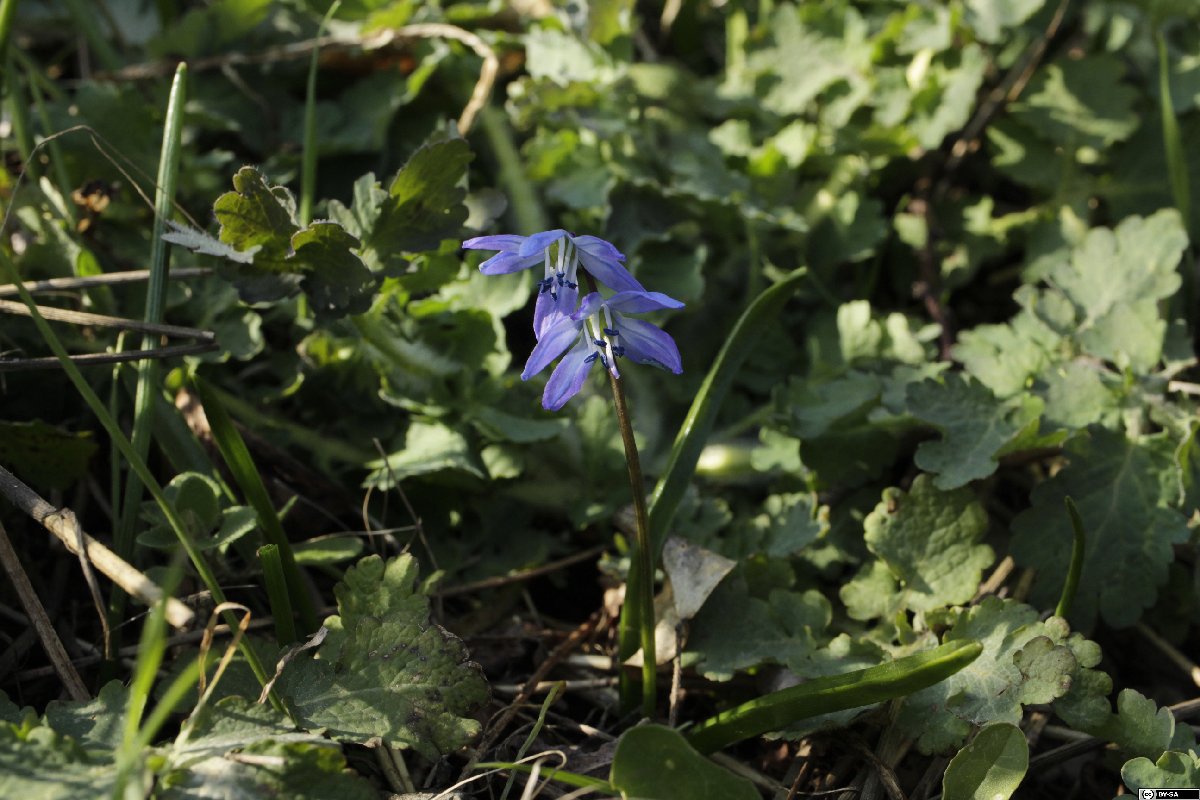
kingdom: Plantae
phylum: Tracheophyta
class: Liliopsida
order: Asparagales
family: Asparagaceae
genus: Scilla
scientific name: Scilla siberica
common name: Siberian squill
